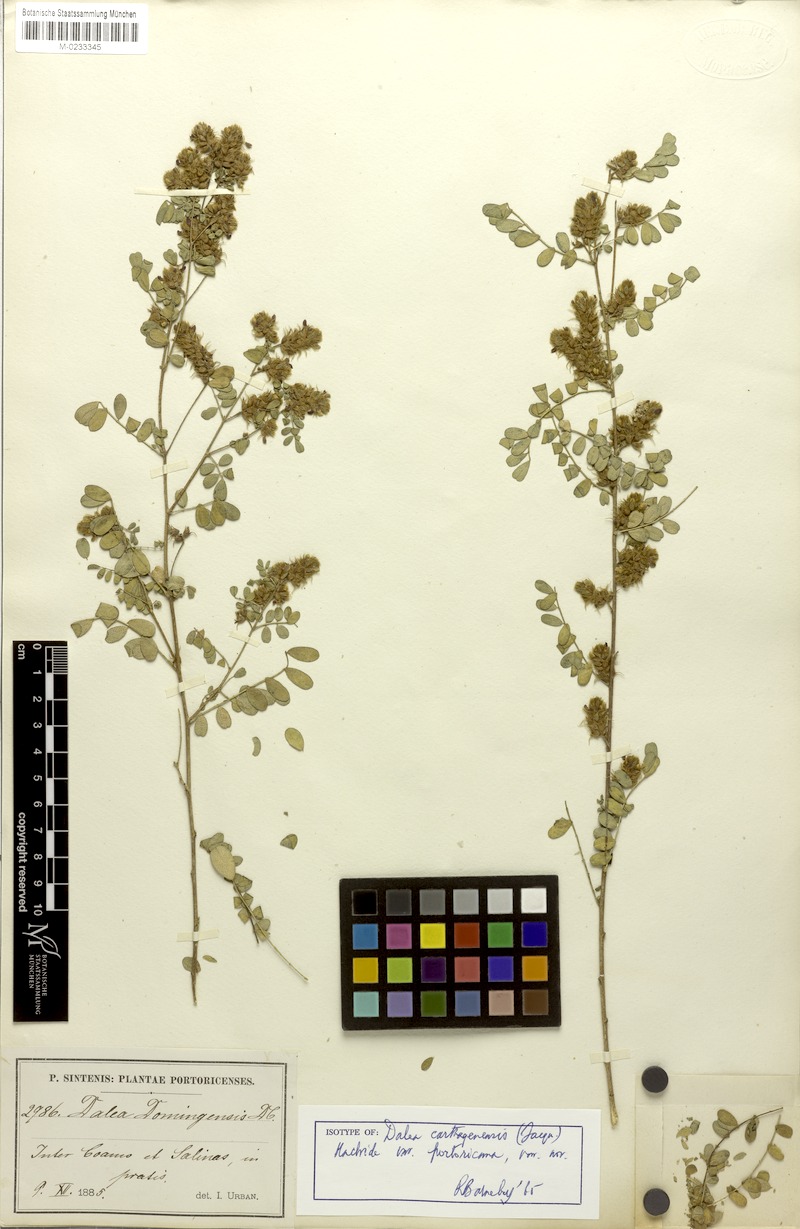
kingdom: Plantae
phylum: Tracheophyta
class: Magnoliopsida
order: Fabales
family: Fabaceae
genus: Dalea
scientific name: Dalea carthagenensis
